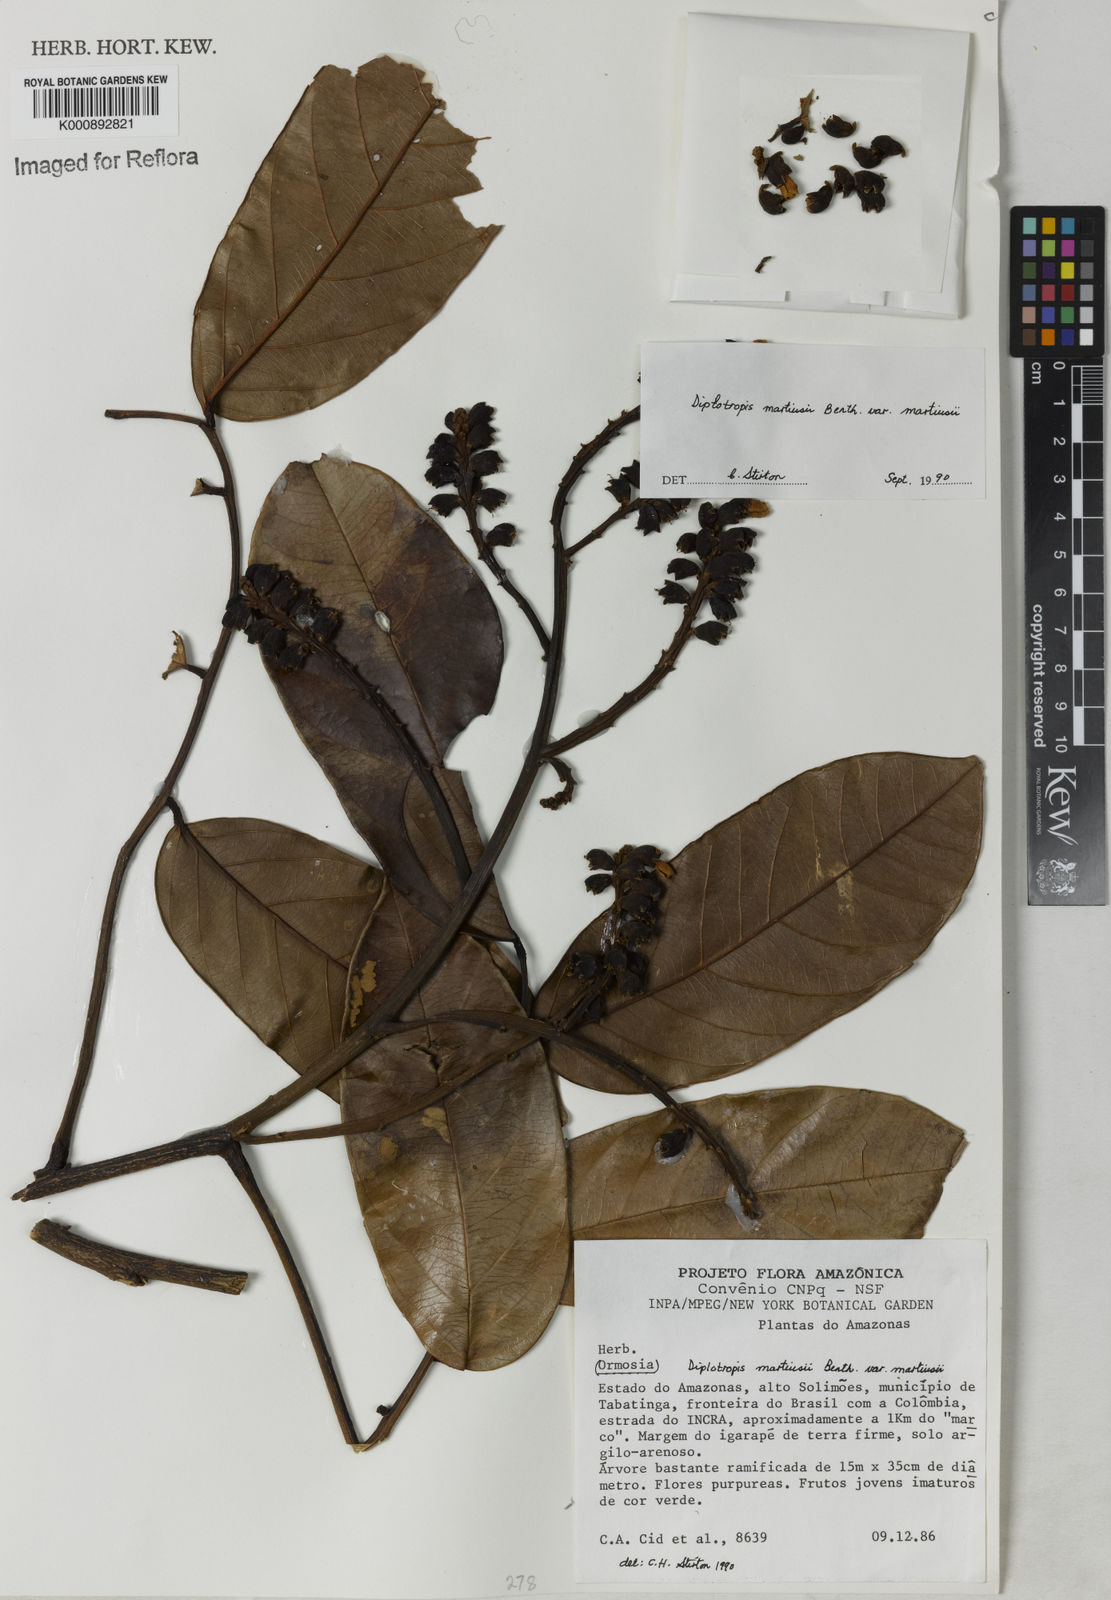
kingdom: Plantae
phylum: Tracheophyta
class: Magnoliopsida
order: Fabales
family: Fabaceae
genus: Diplotropis
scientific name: Diplotropis
